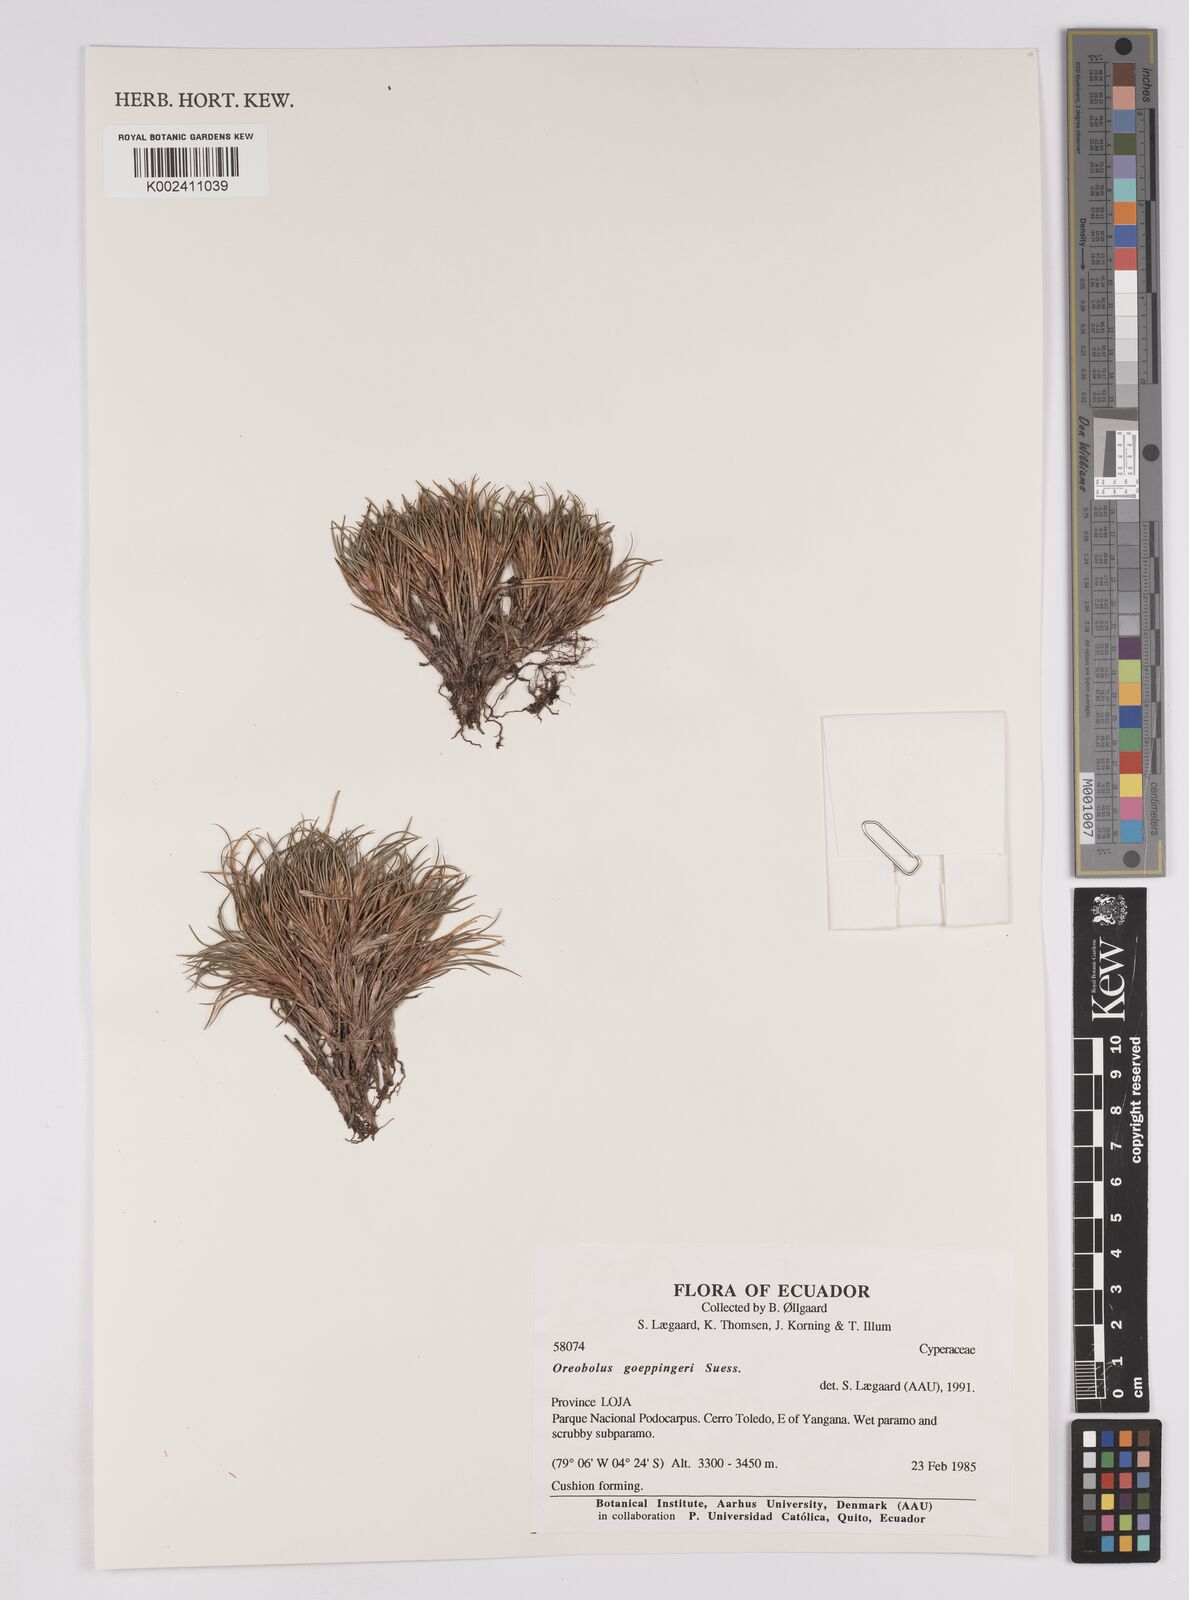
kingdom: Plantae
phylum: Tracheophyta
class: Liliopsida
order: Poales
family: Cyperaceae
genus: Oreobolus
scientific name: Oreobolus goeppingeri
